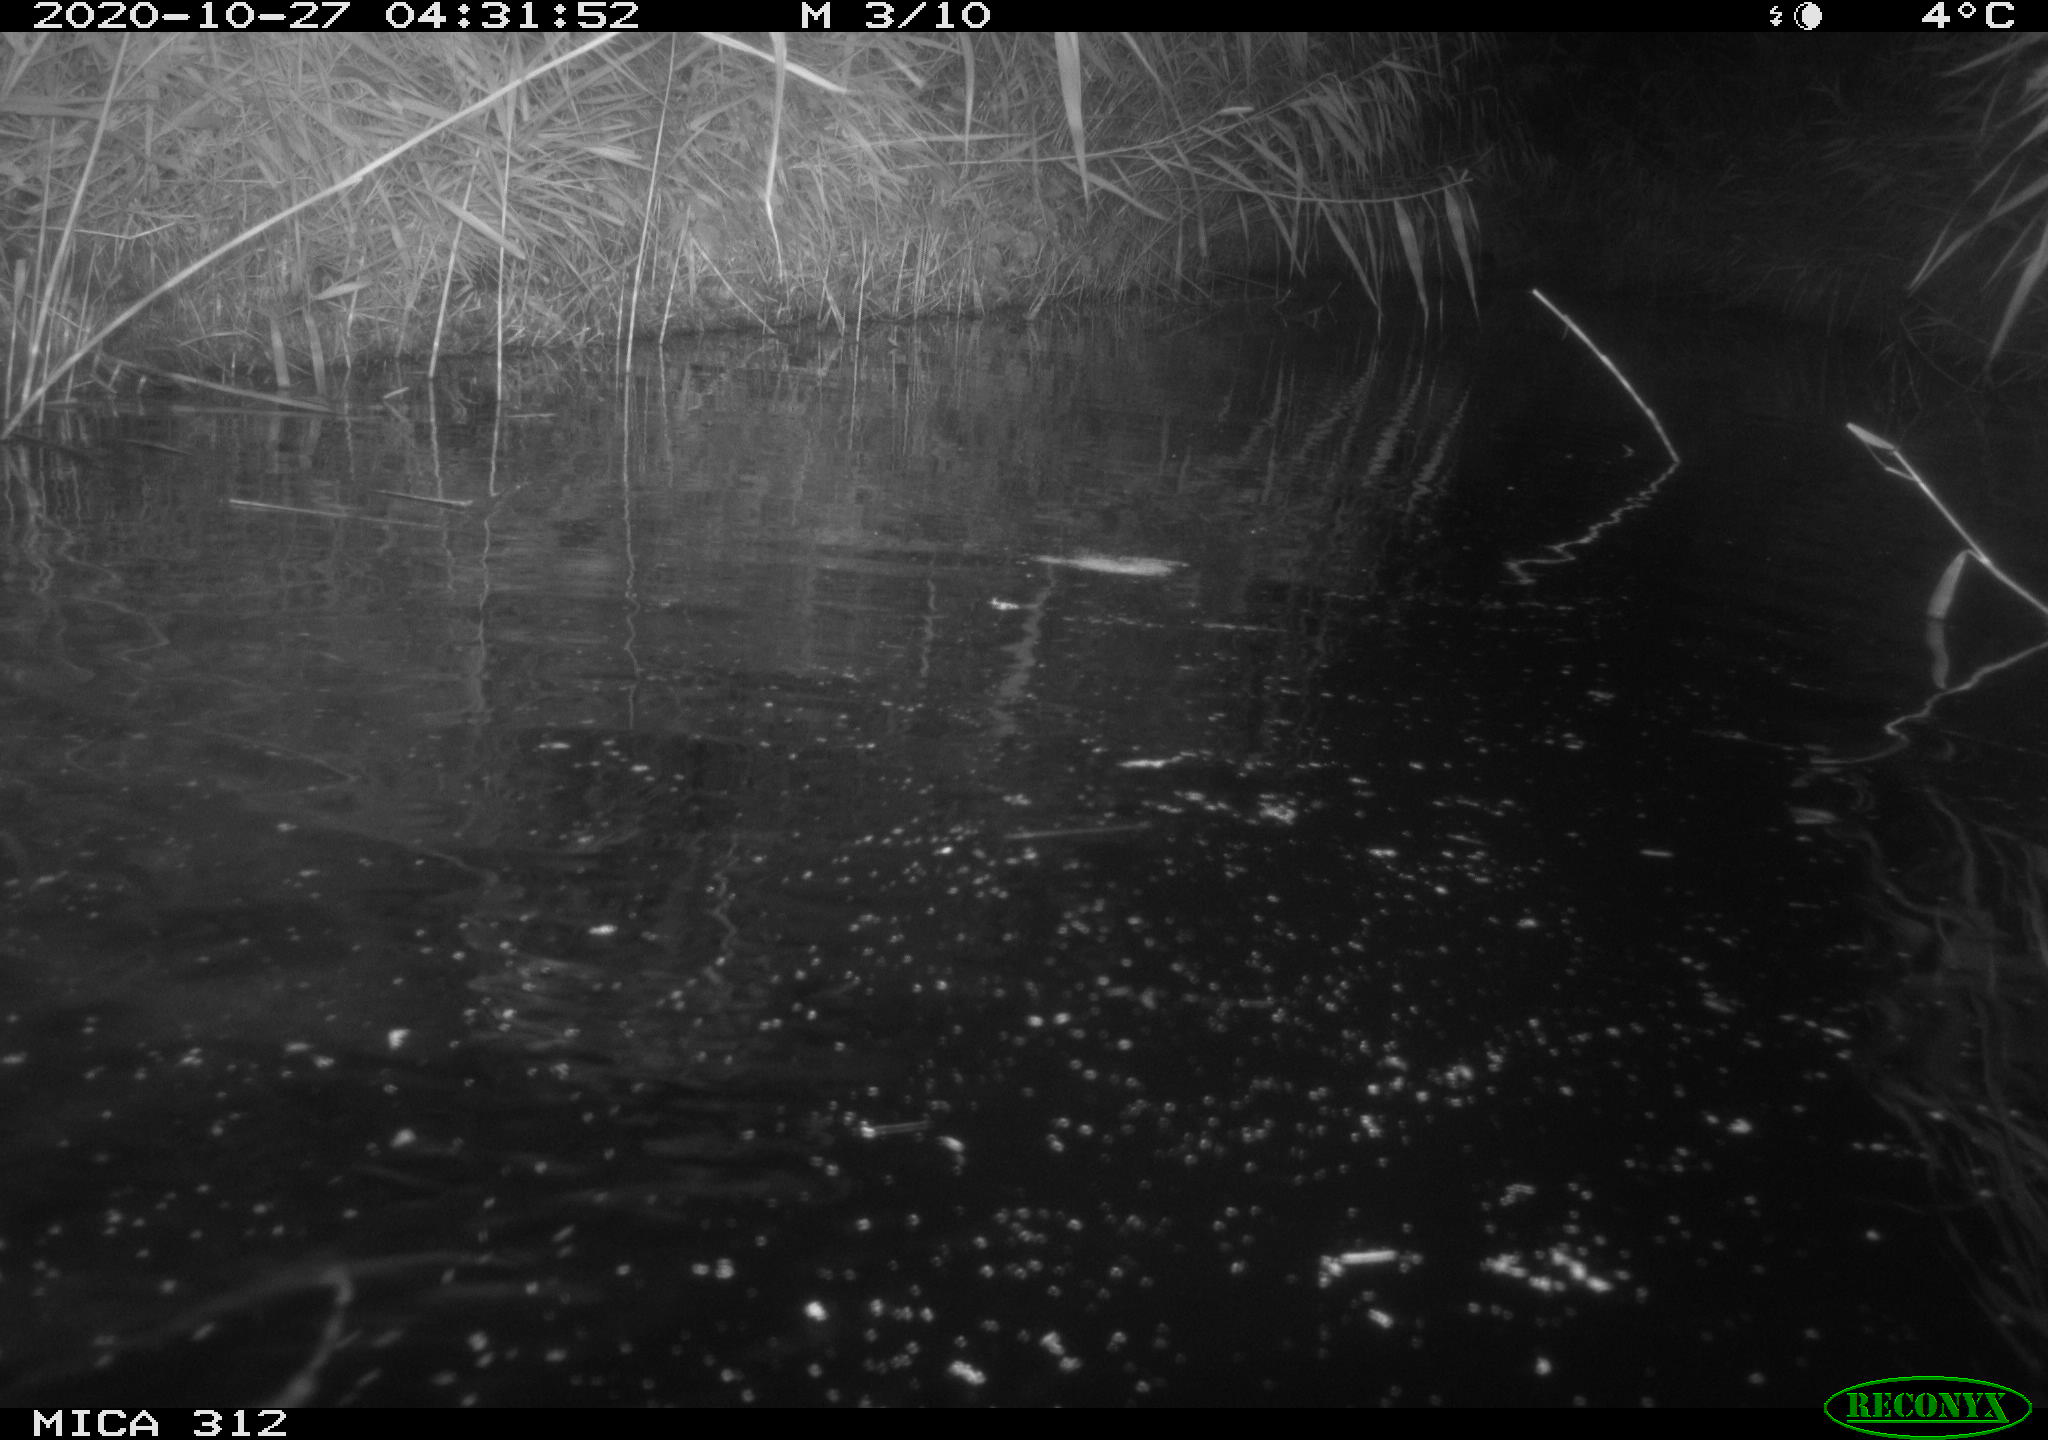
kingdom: Animalia
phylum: Chordata
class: Mammalia
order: Rodentia
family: Cricetidae
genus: Ondatra
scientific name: Ondatra zibethicus
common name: Muskrat
